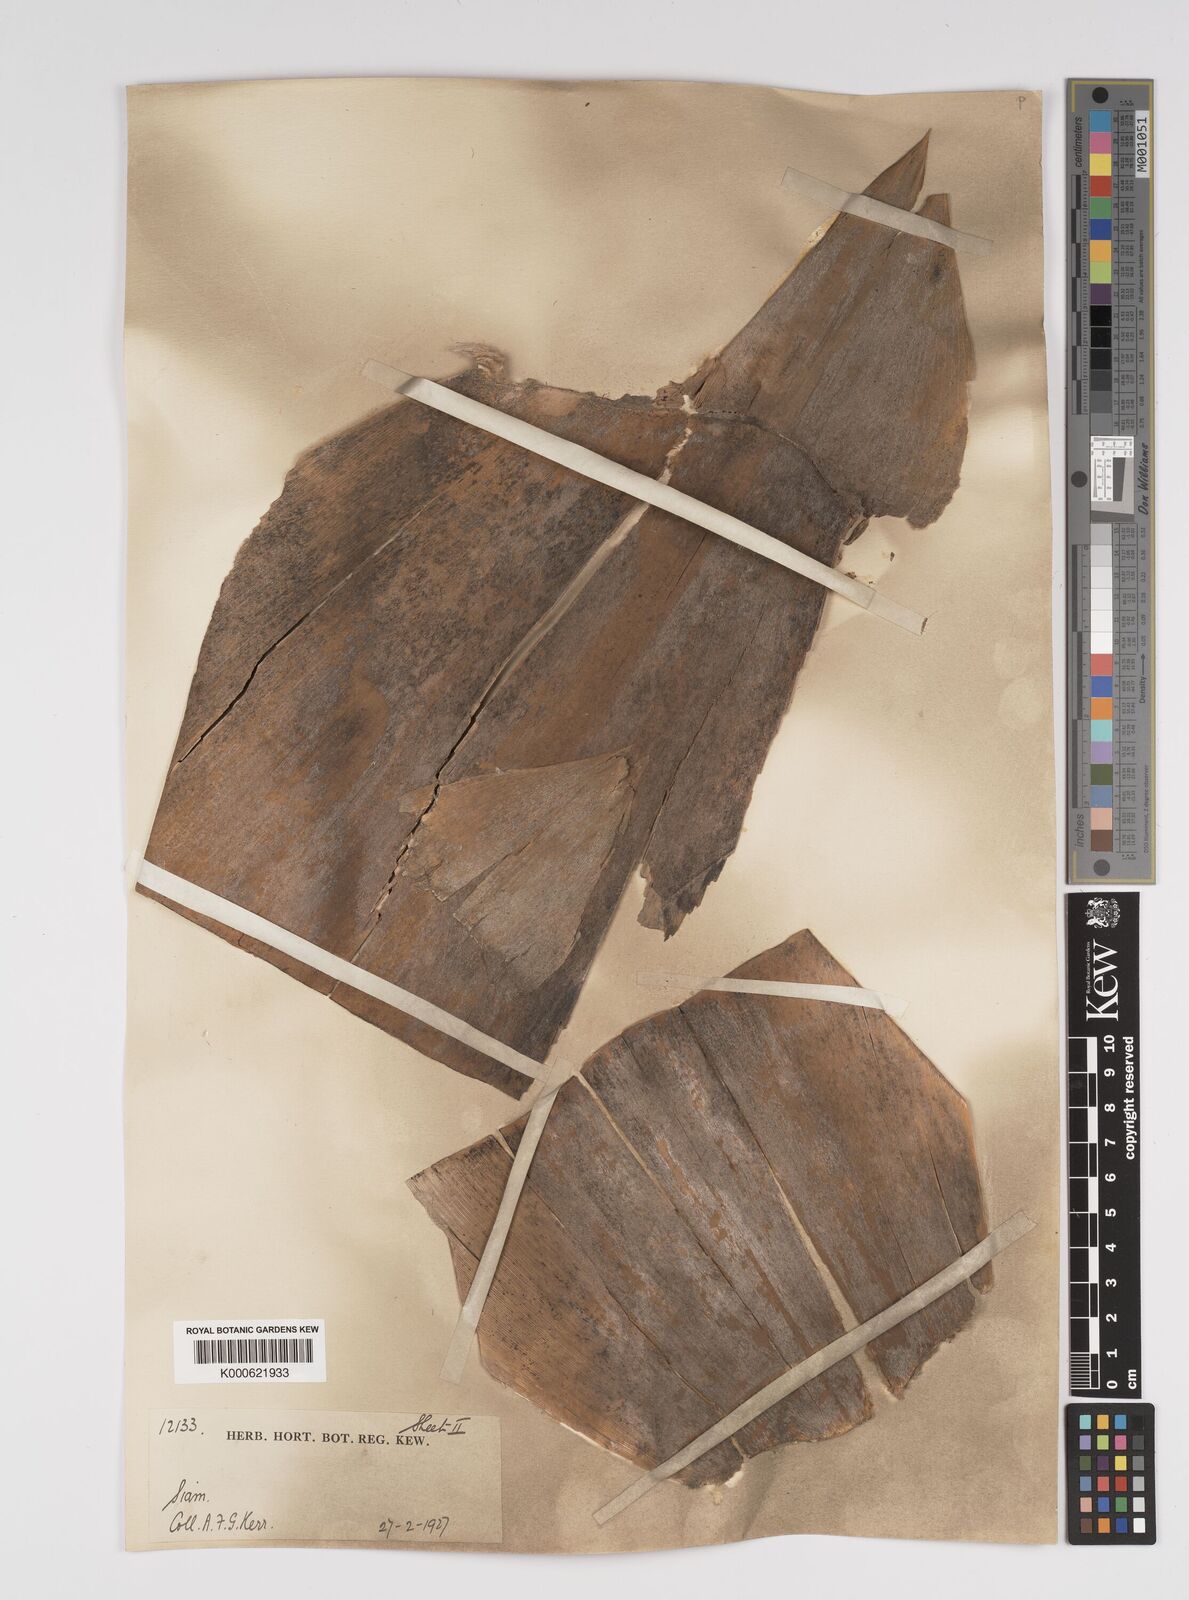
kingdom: Plantae
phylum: Tracheophyta
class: Liliopsida
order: Poales
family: Poaceae
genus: Bambusa
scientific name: Bambusa
